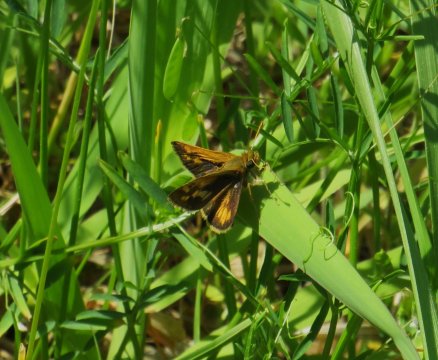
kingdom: Animalia
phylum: Arthropoda
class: Insecta
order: Lepidoptera
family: Hesperiidae
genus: Polites
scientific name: Polites coras
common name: Peck's Skipper
